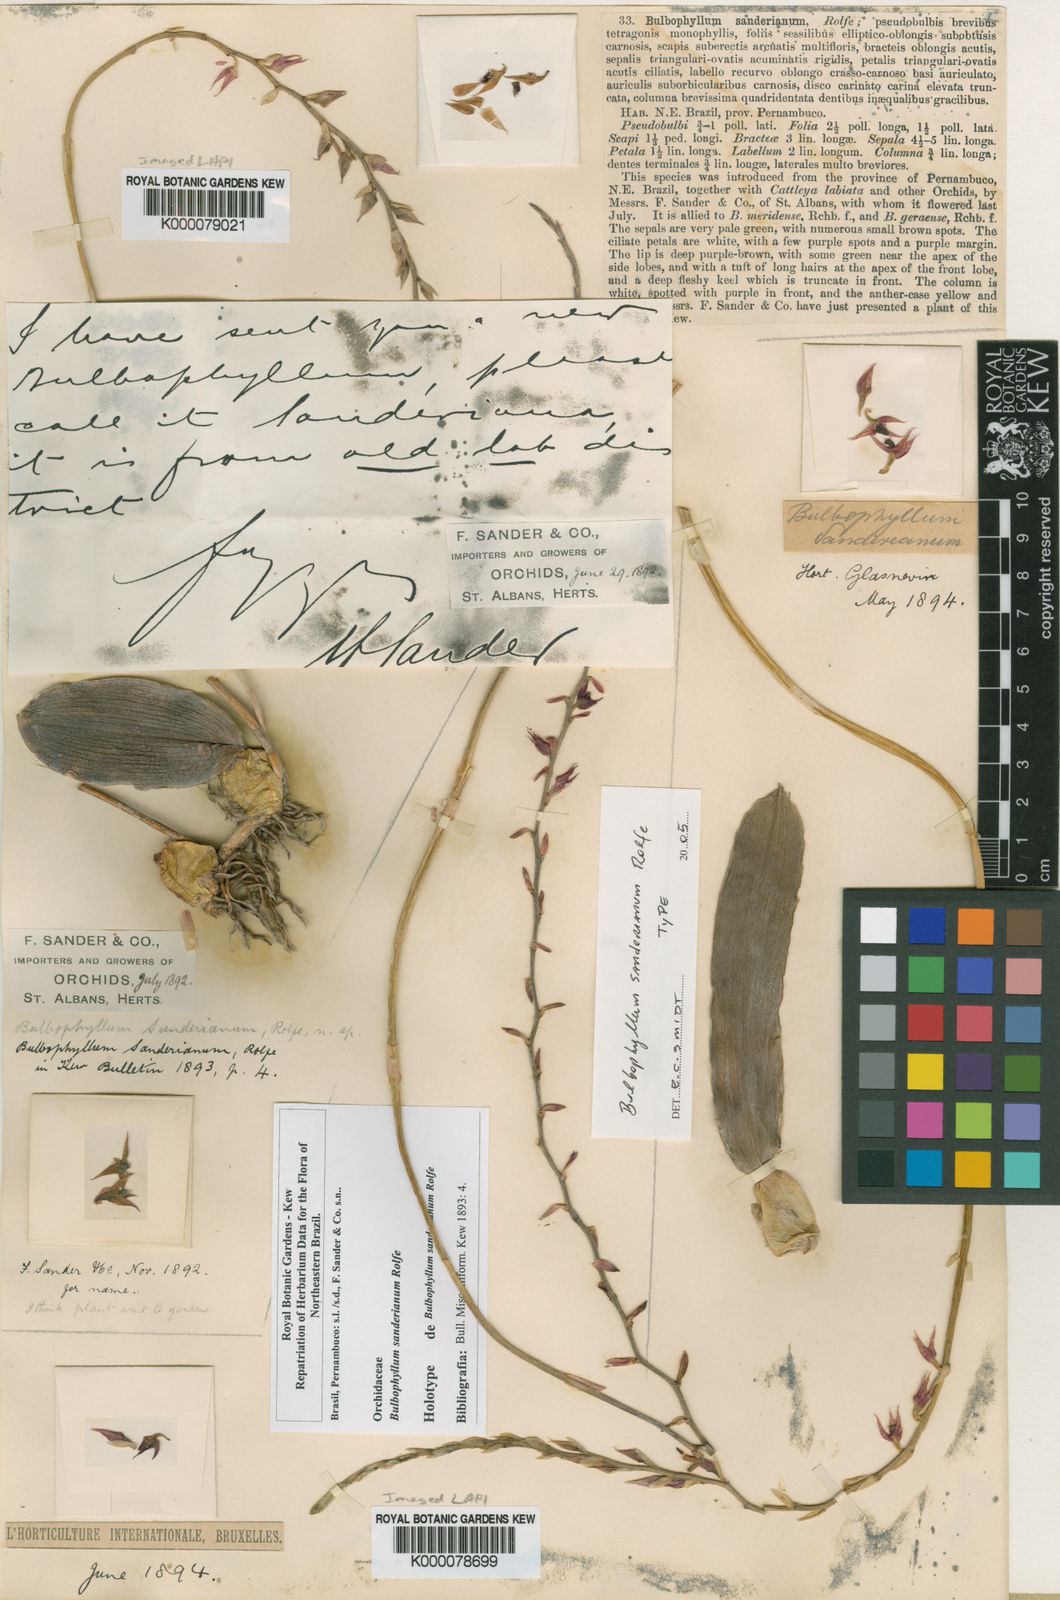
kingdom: Plantae
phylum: Tracheophyta
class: Liliopsida
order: Asparagales
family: Orchidaceae
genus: Bulbophyllum
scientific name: Bulbophyllum sanderianum
